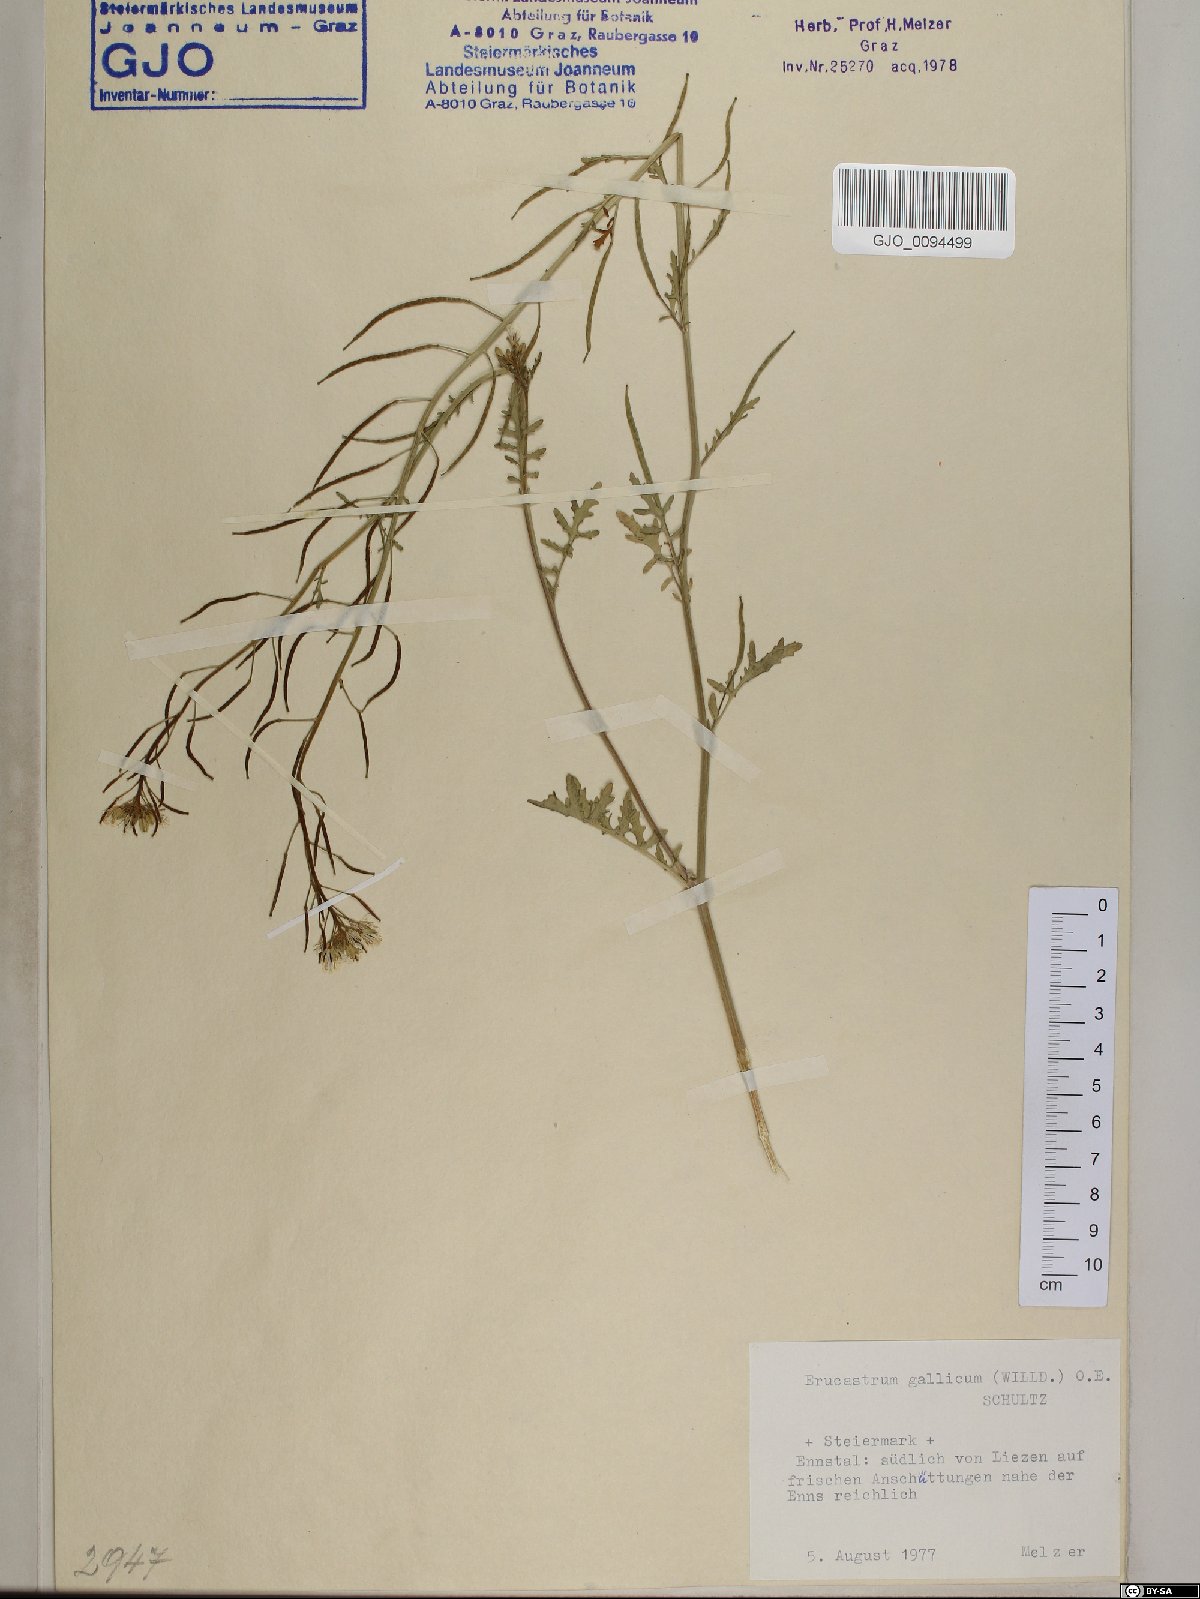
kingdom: Plantae
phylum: Tracheophyta
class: Magnoliopsida
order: Brassicales
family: Brassicaceae
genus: Erucastrum
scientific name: Erucastrum gallicum
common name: Hairy rocket
